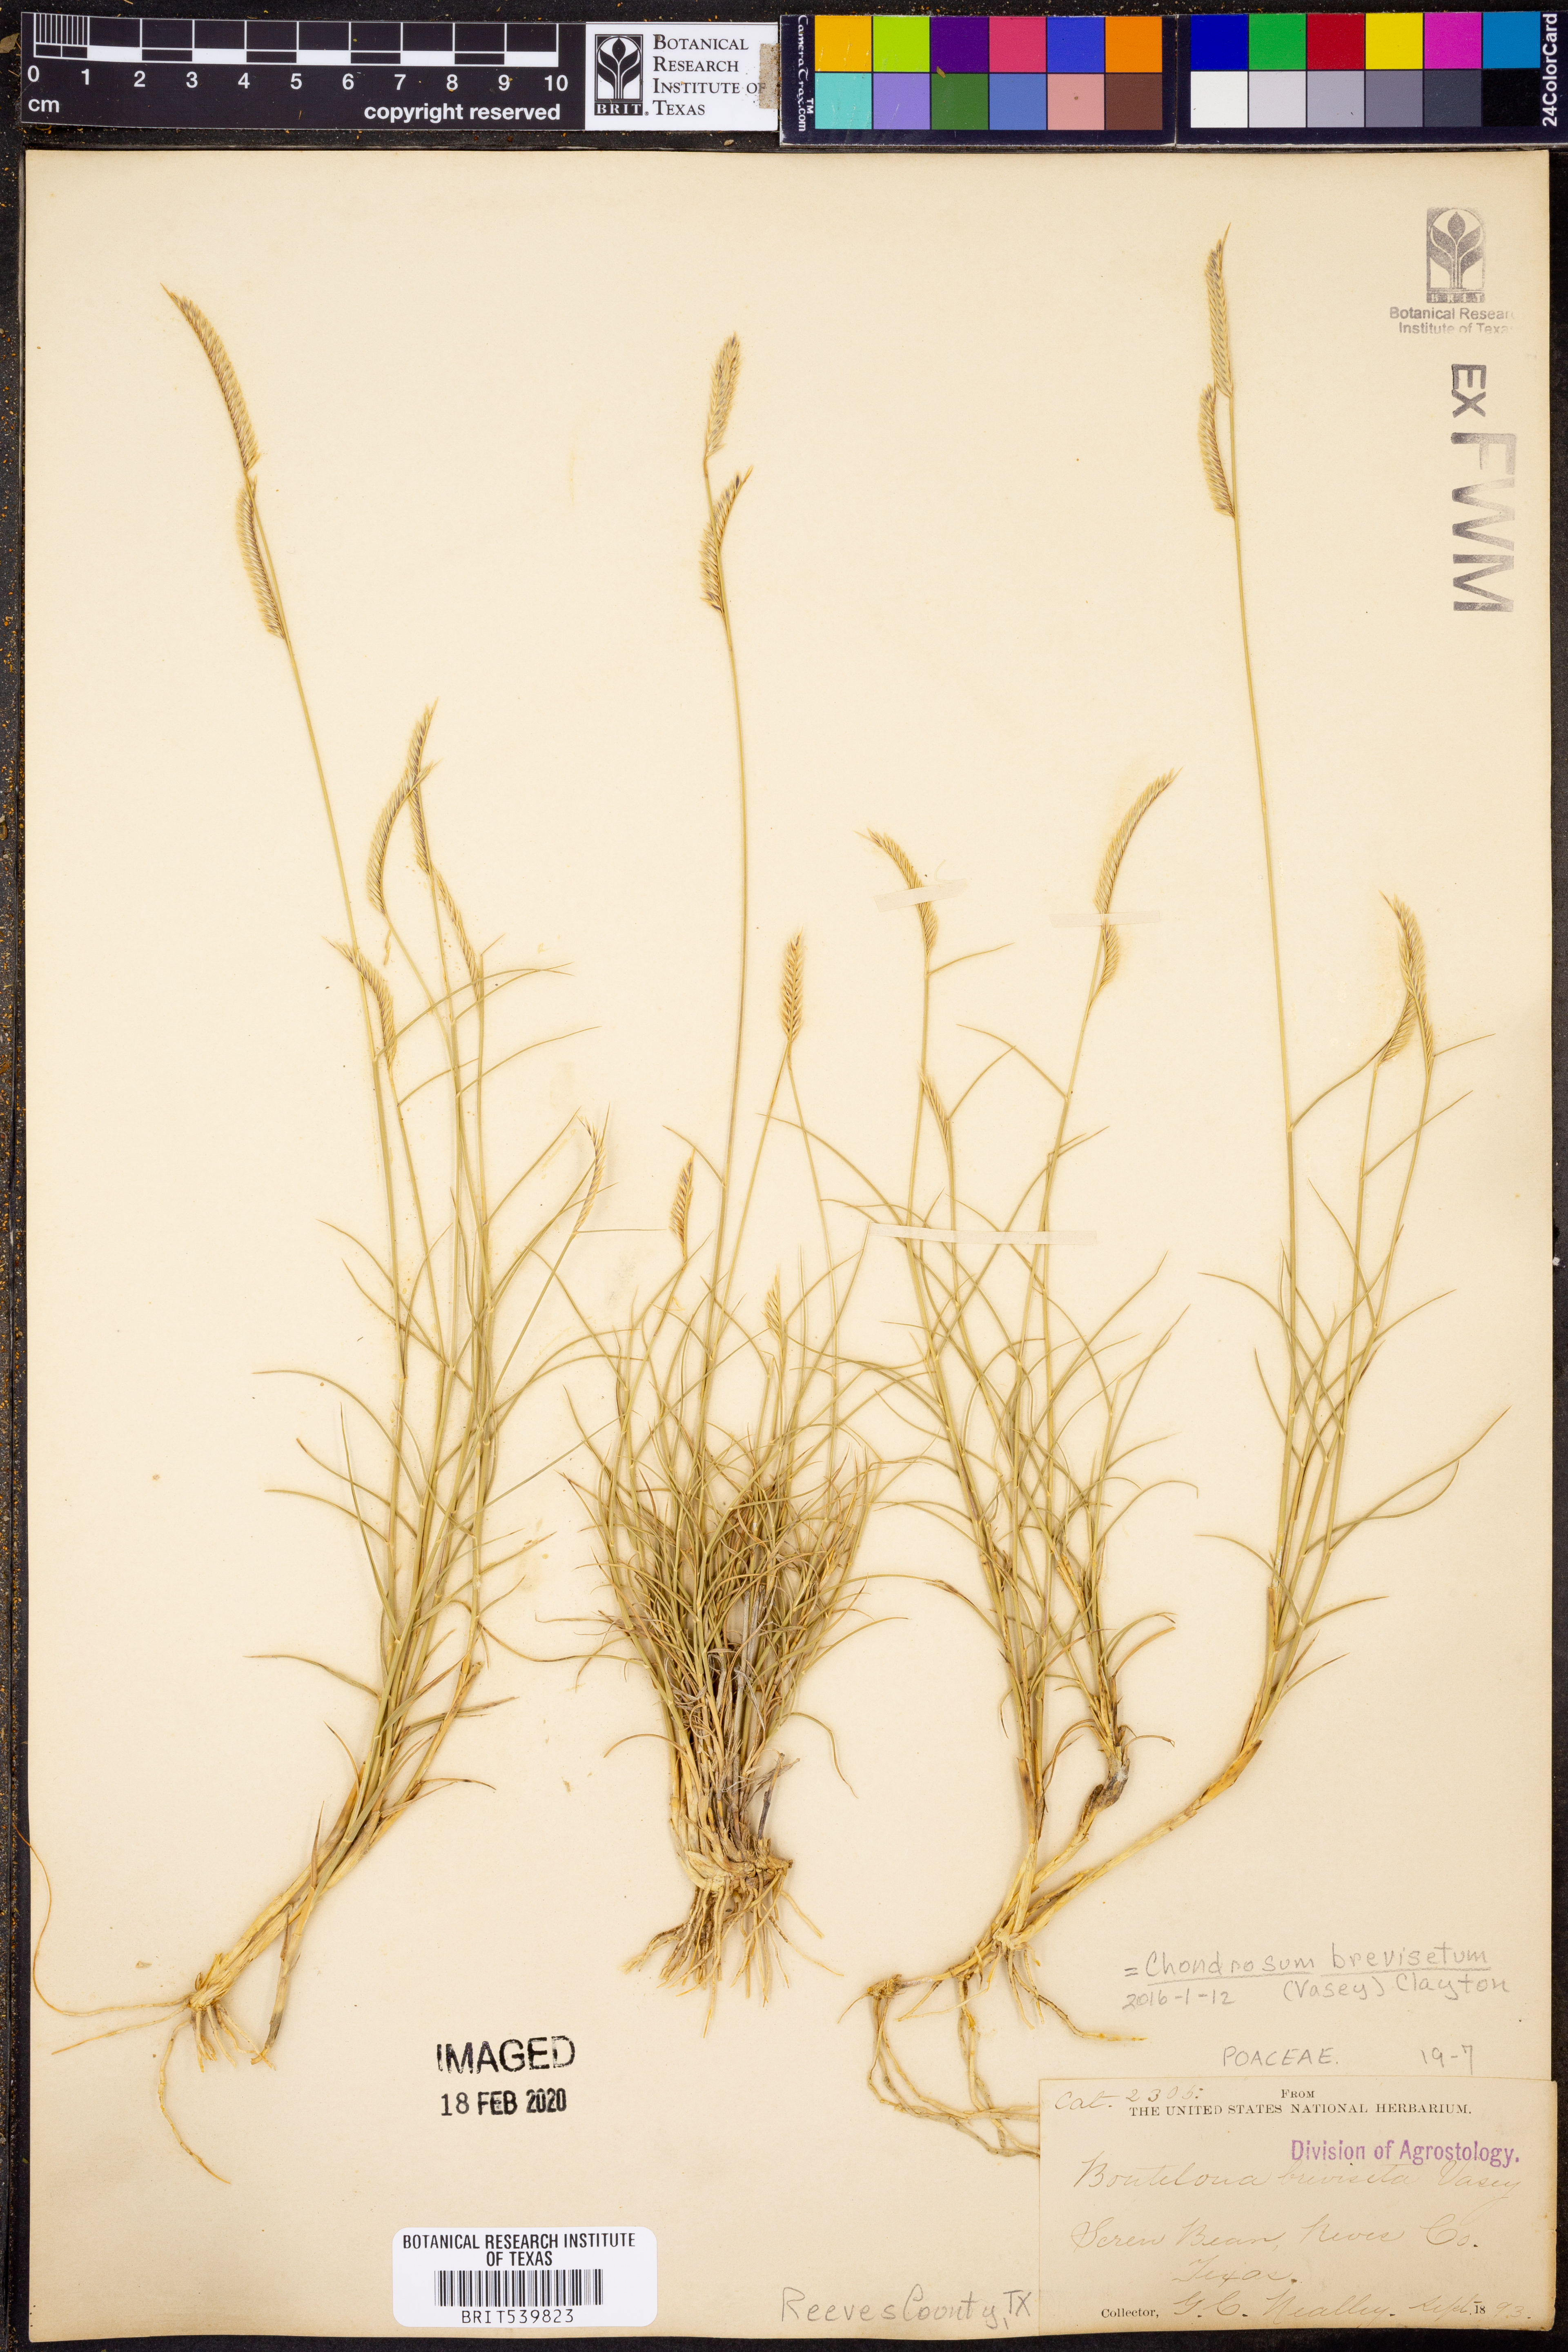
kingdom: Plantae
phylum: Tracheophyta
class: Liliopsida
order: Poales
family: Poaceae
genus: Bouteloua
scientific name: Bouteloua breviseta
